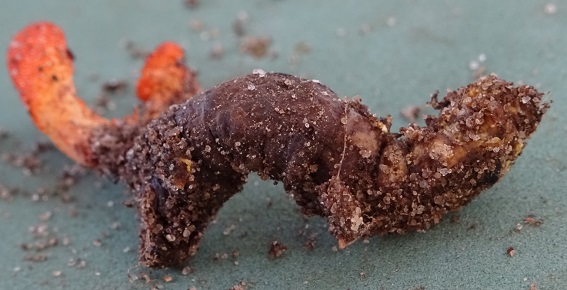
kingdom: Fungi
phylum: Ascomycota
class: Sordariomycetes
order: Hypocreales
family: Cordycipitaceae
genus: Cordyceps
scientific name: Cordyceps militaris
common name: puppe-snyltekølle
